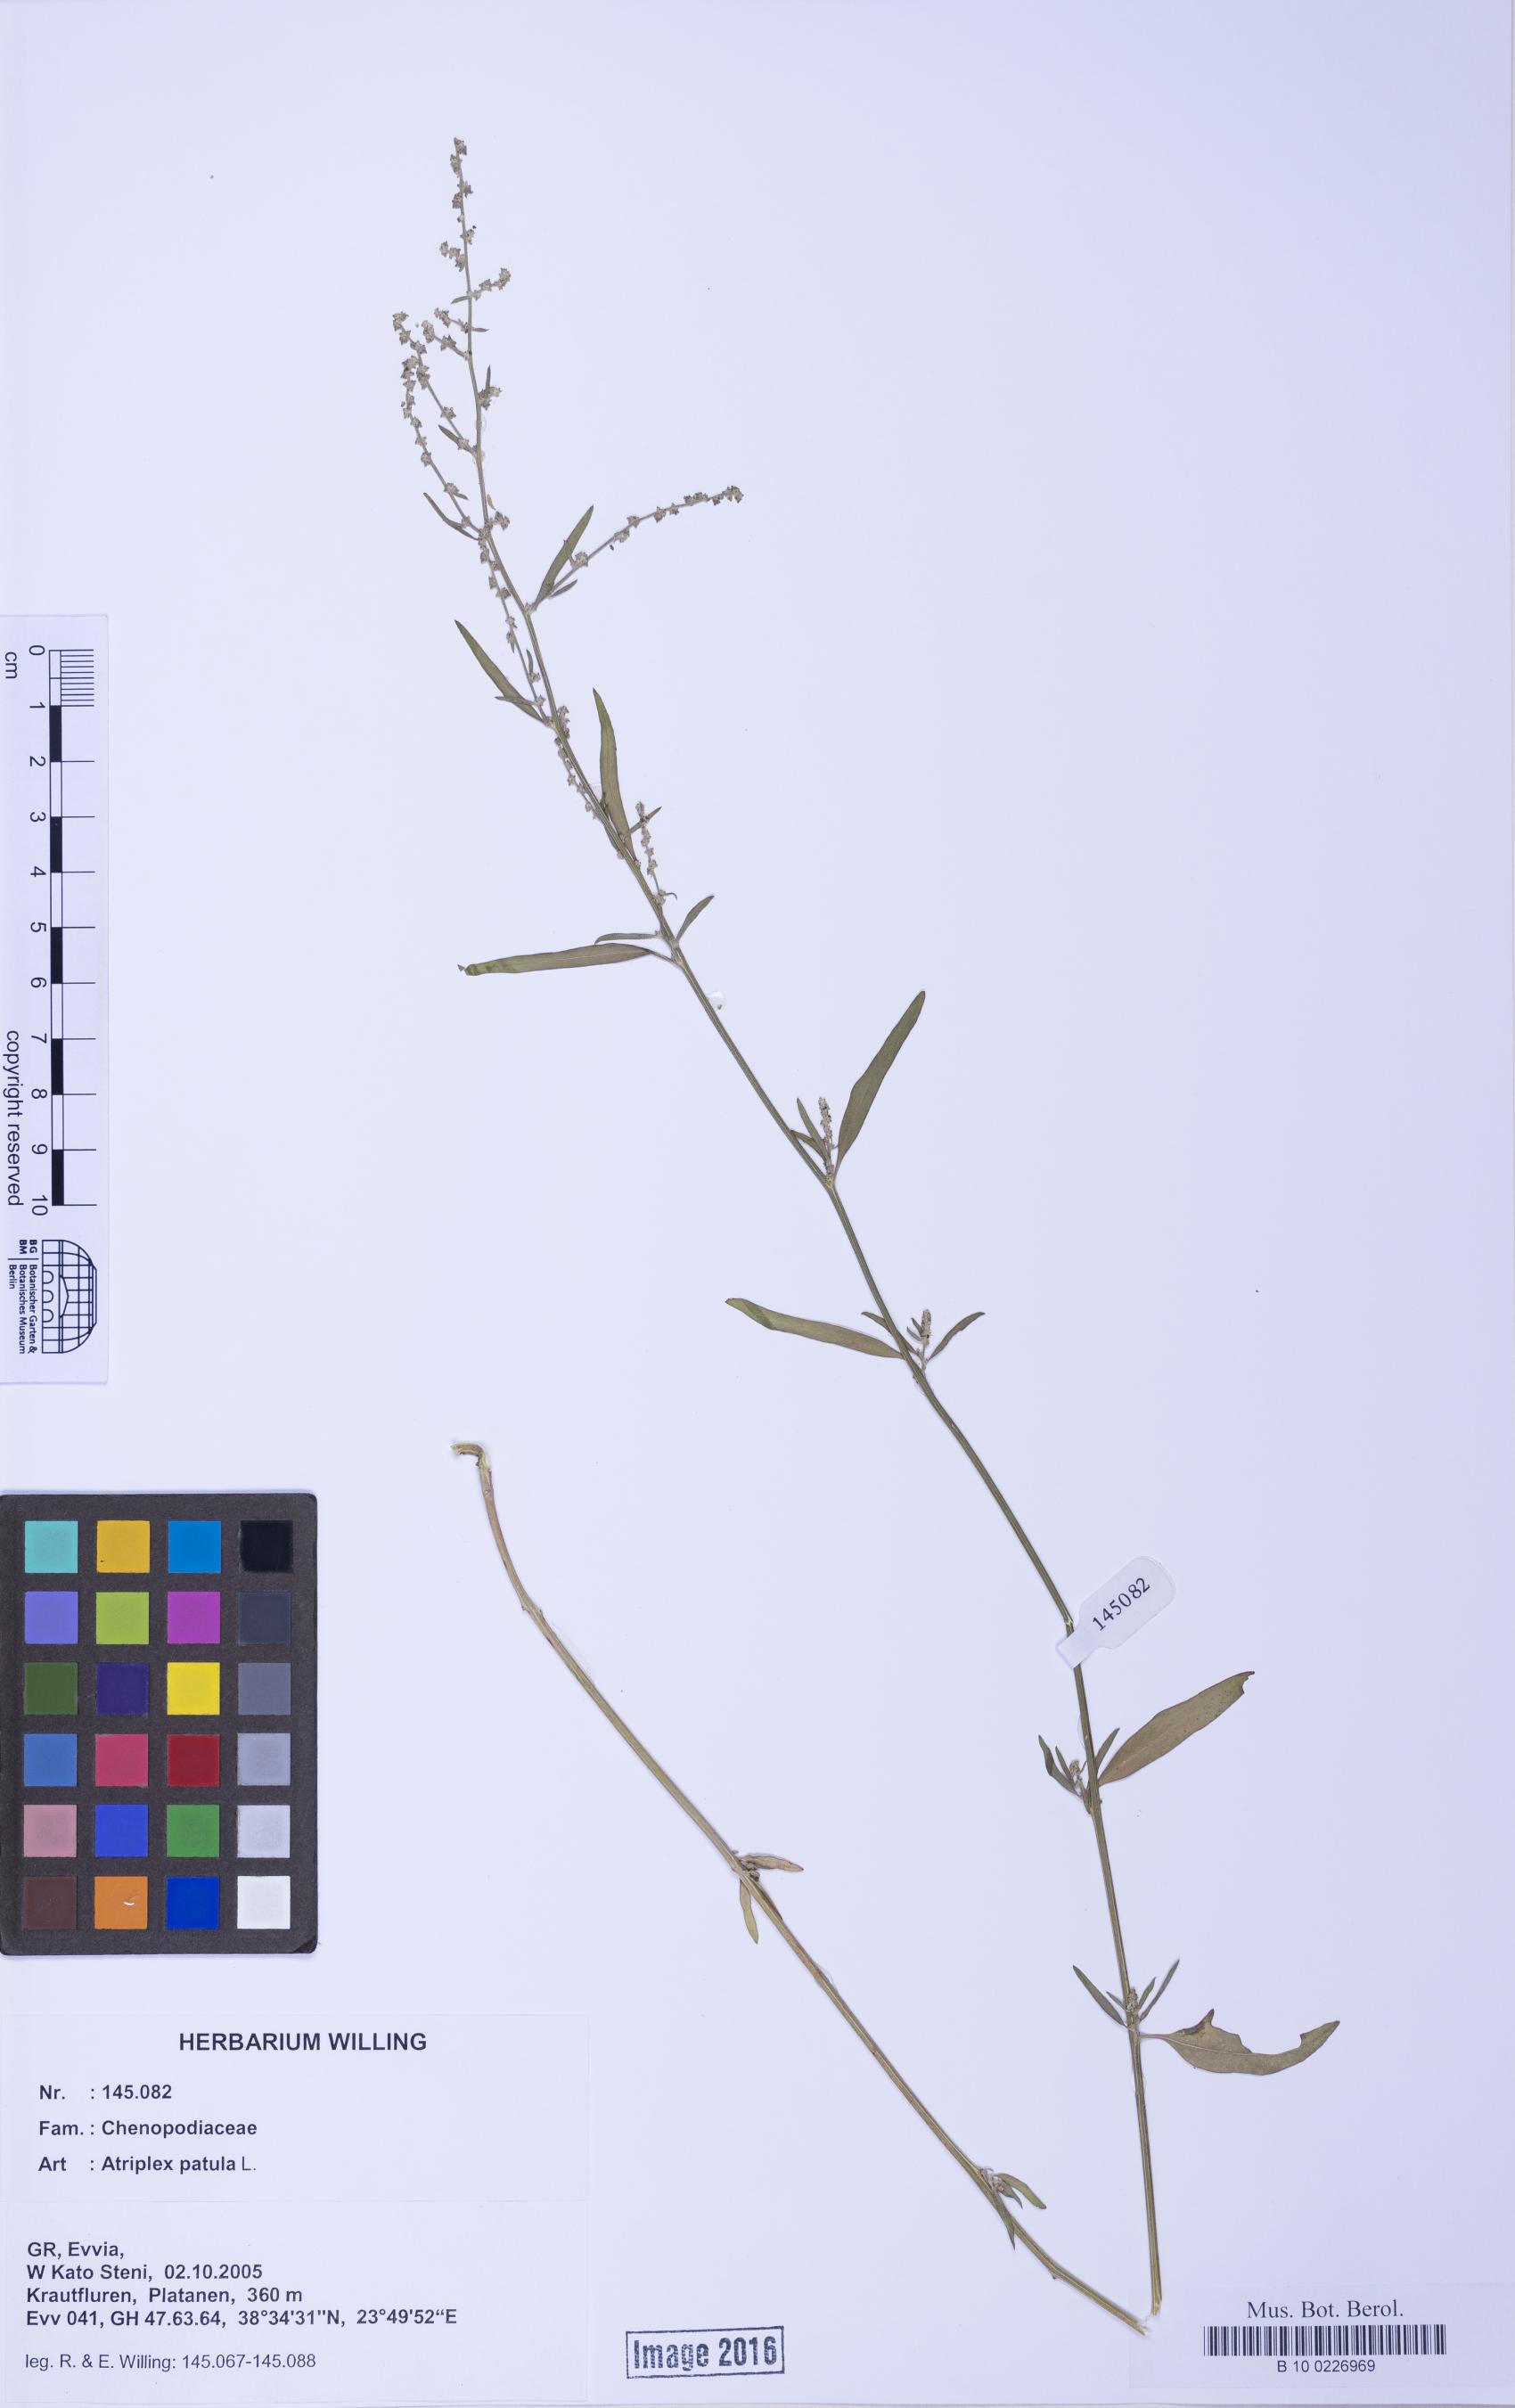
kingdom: Plantae
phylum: Tracheophyta
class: Magnoliopsida
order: Caryophyllales
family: Amaranthaceae
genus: Atriplex
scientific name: Atriplex patula
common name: Common orache
